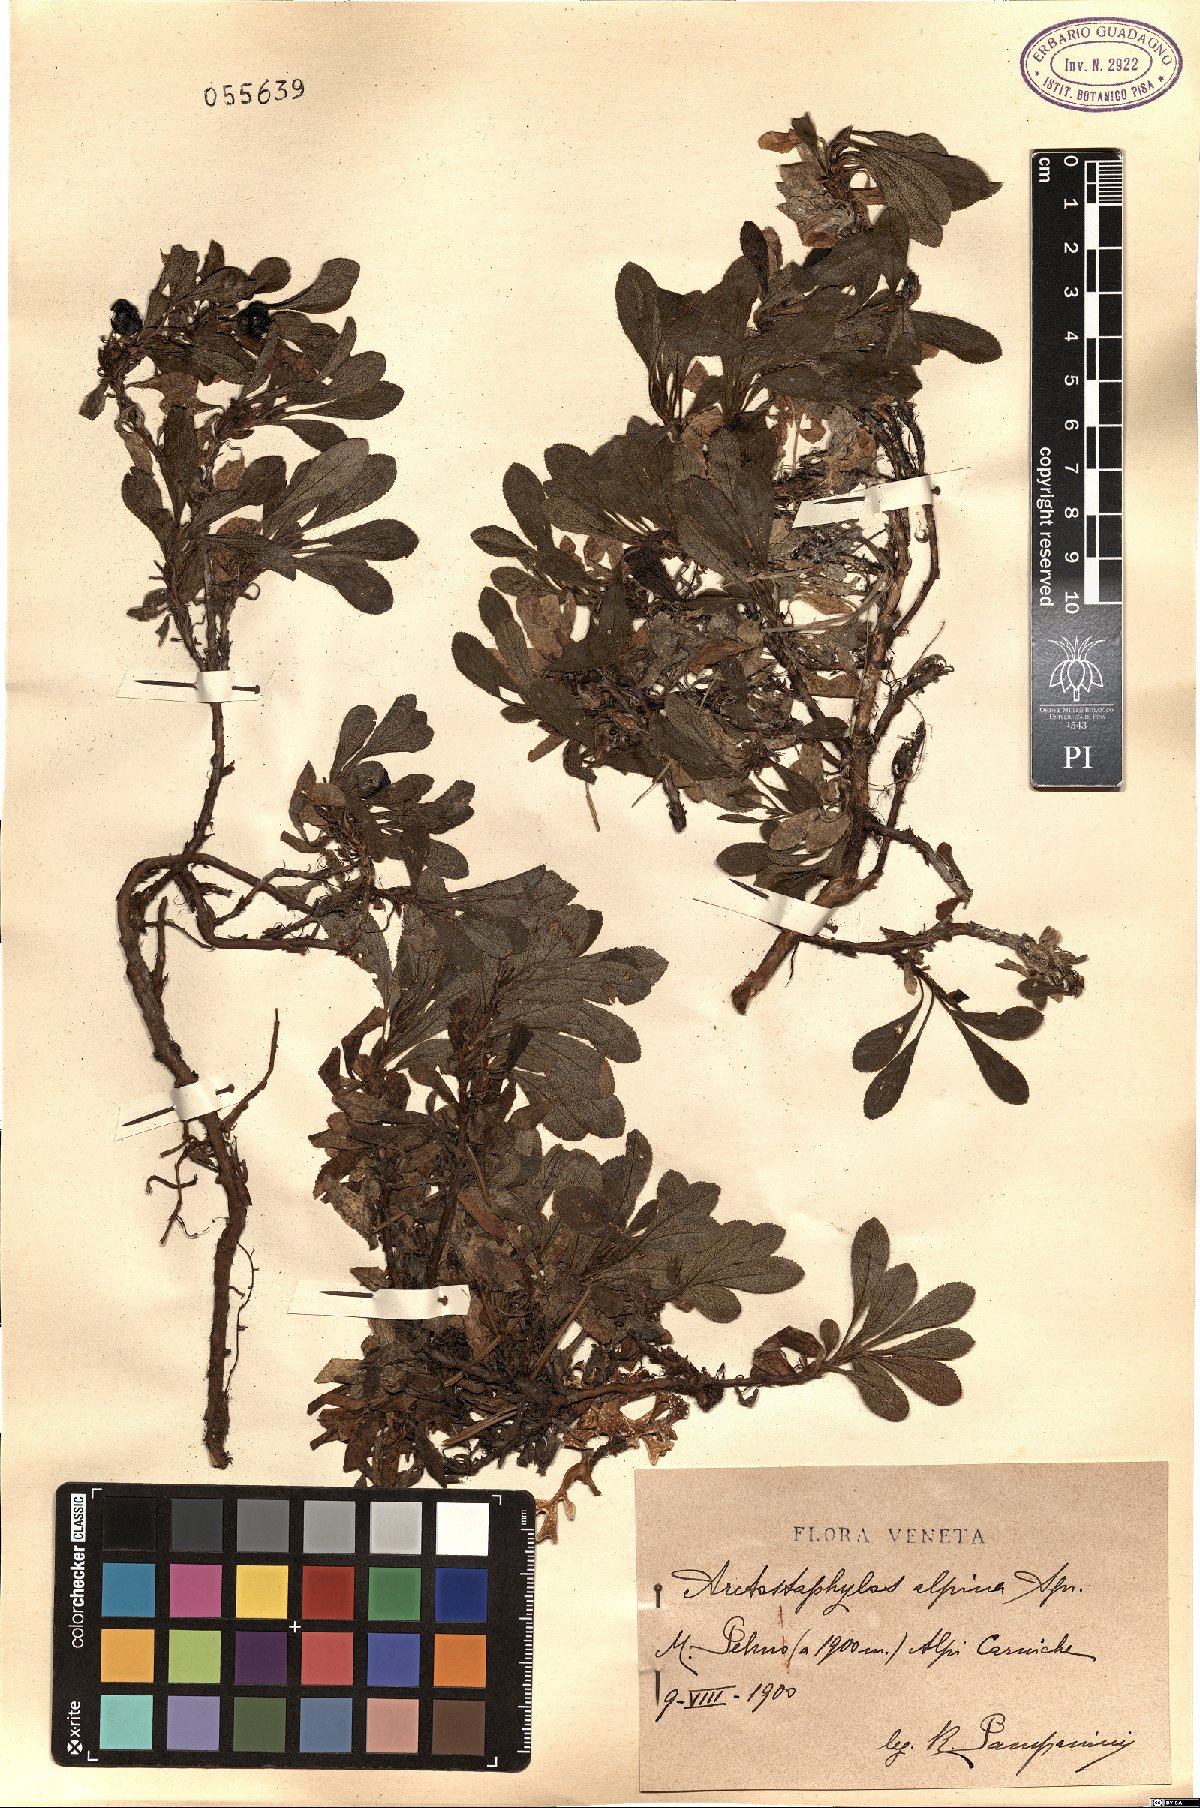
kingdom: Plantae
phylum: Tracheophyta
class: Magnoliopsida
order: Ericales
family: Ericaceae
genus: Arctostaphylos
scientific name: Arctostaphylos alpinus
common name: Alpine bearberry
